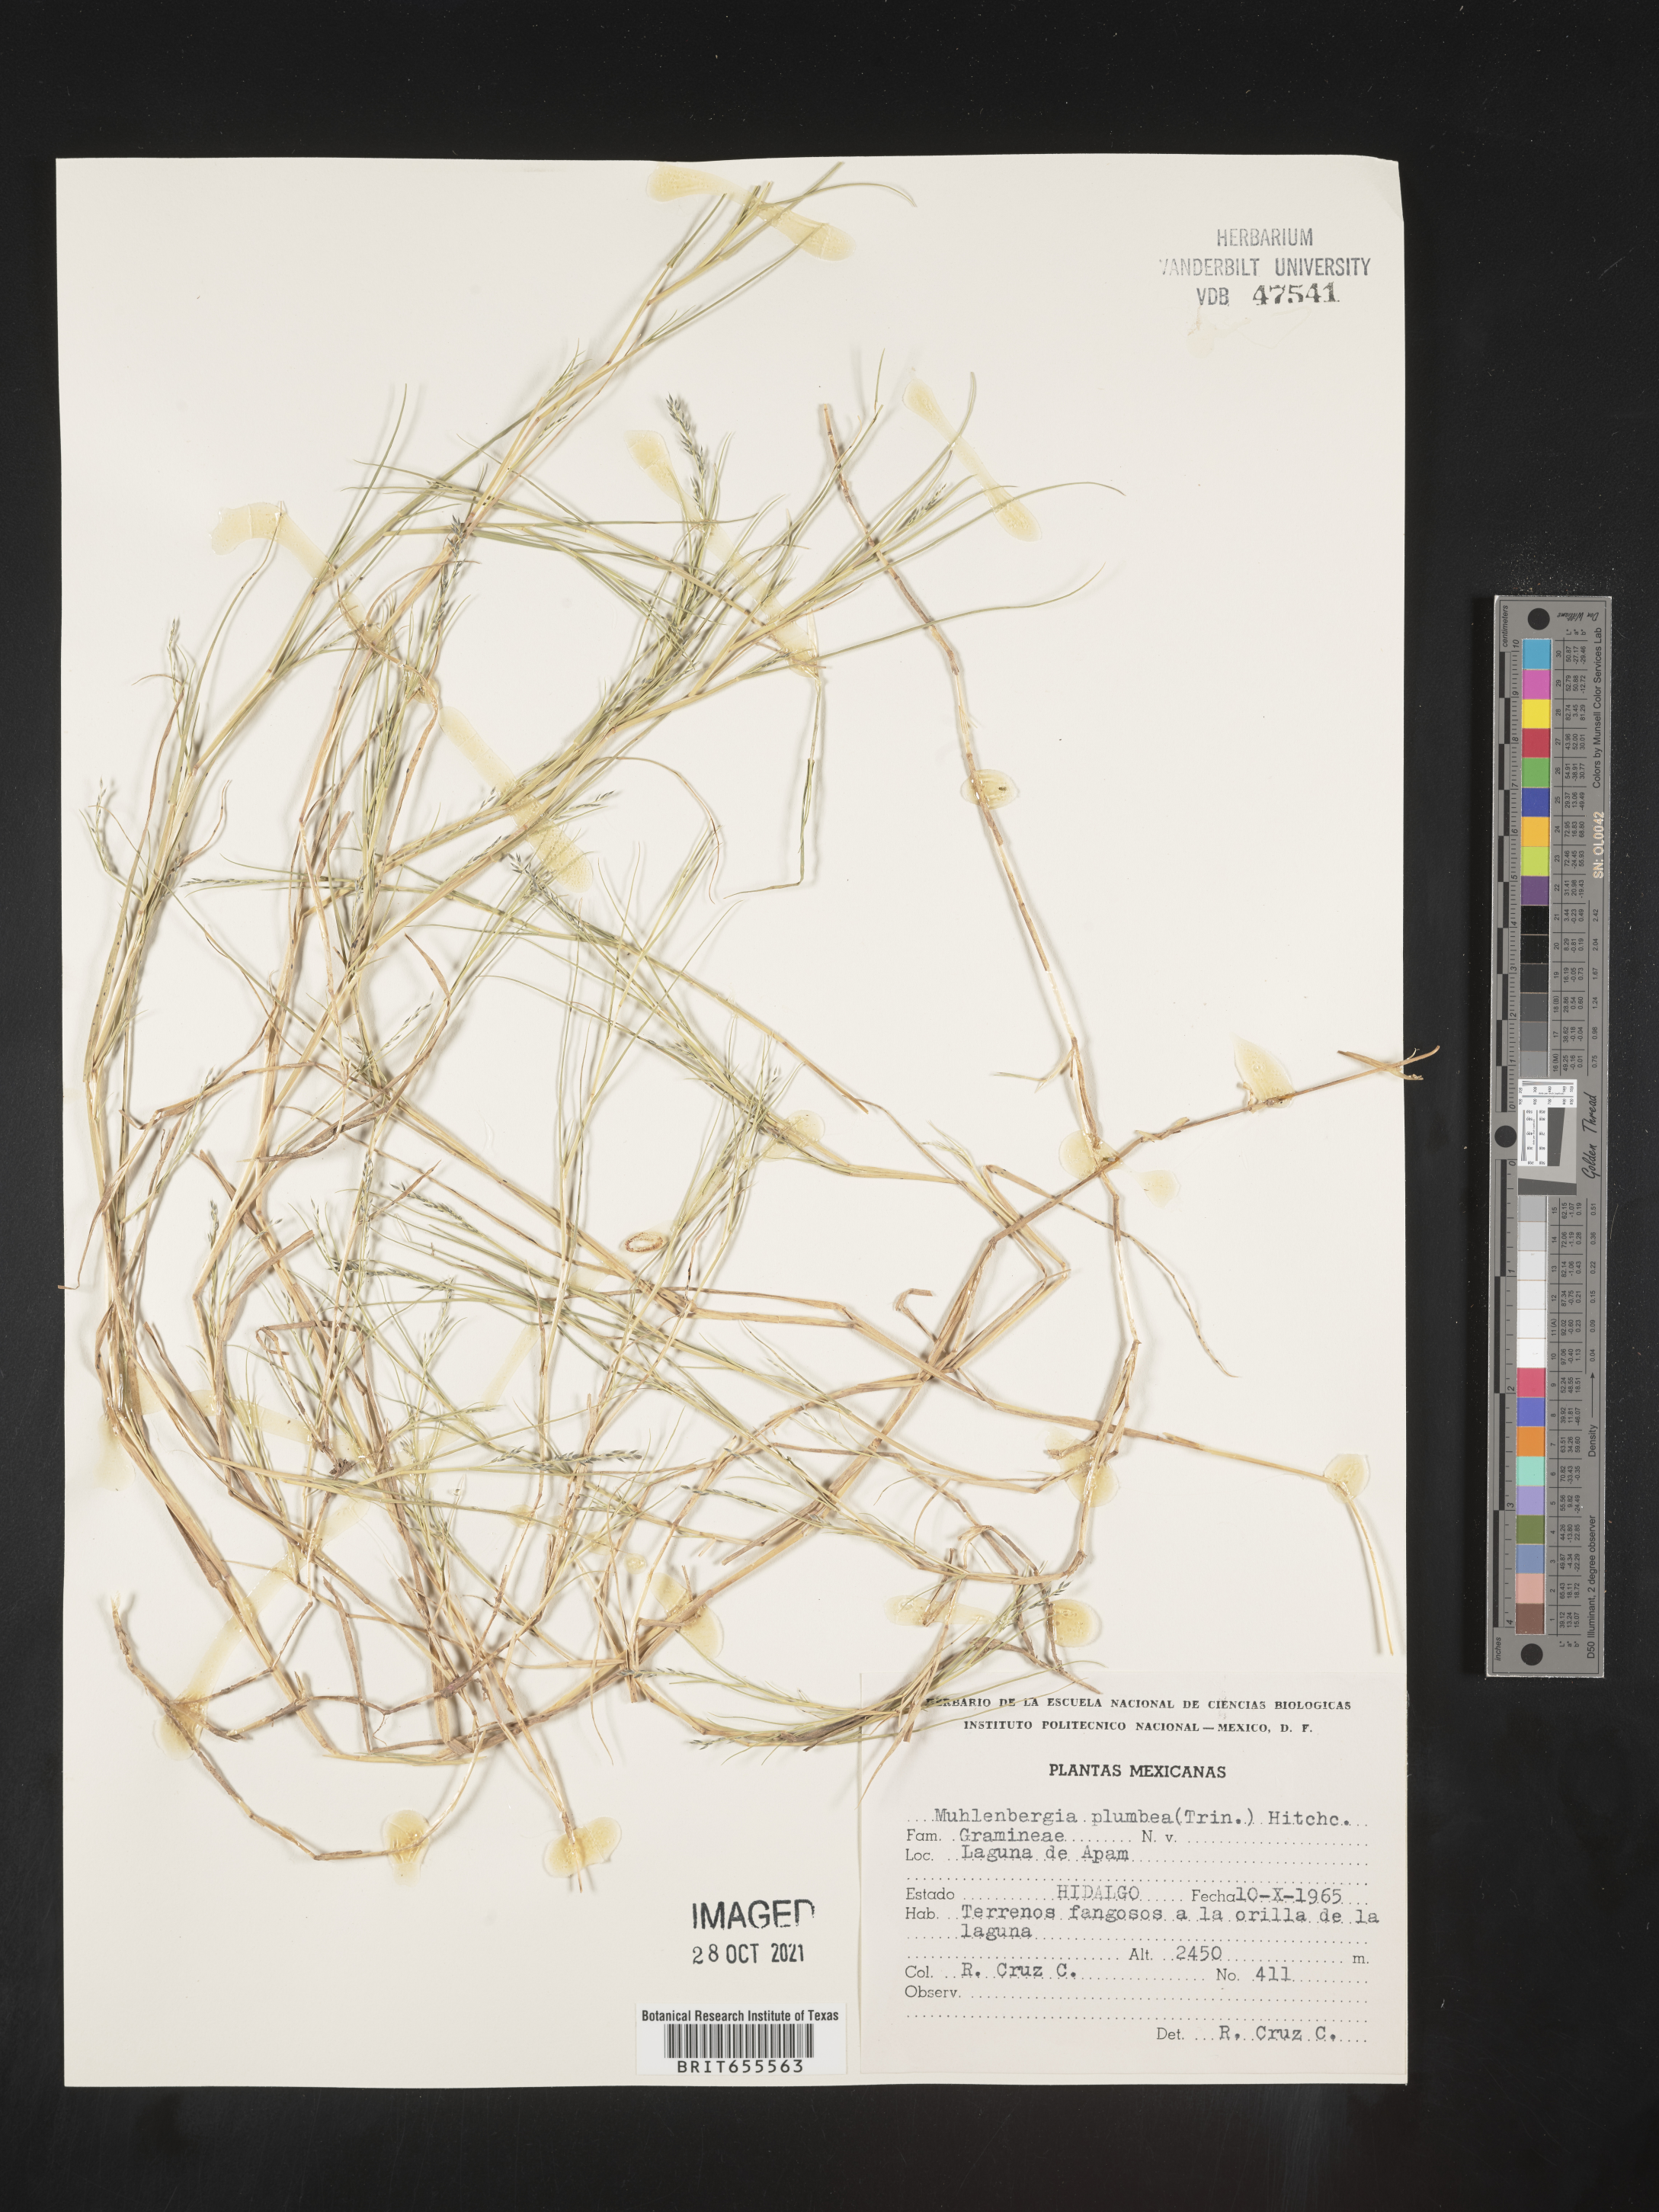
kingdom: Plantae
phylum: Tracheophyta
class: Liliopsida
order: Poales
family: Poaceae
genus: Muhlenbergia
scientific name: Muhlenbergia
